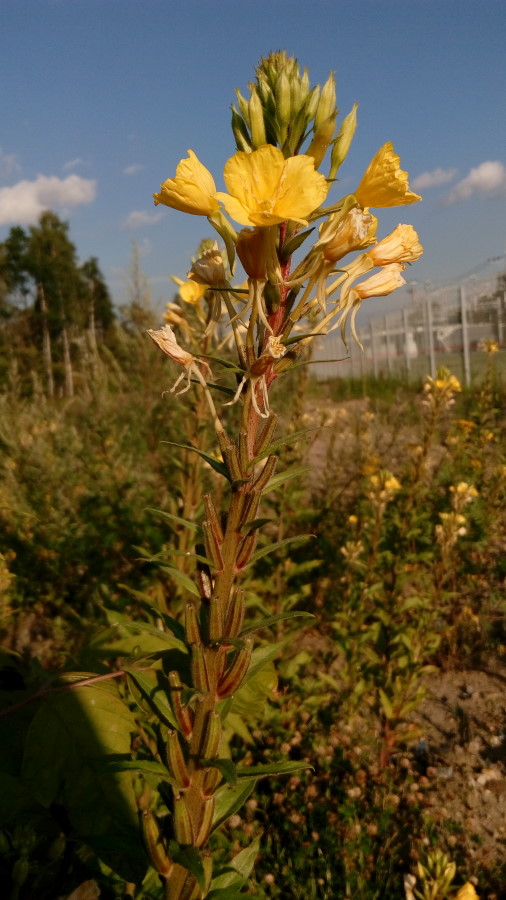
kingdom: Plantae
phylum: Tracheophyta
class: Magnoliopsida
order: Myrtales
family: Onagraceae
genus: Oenothera
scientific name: Oenothera rubricaulis
